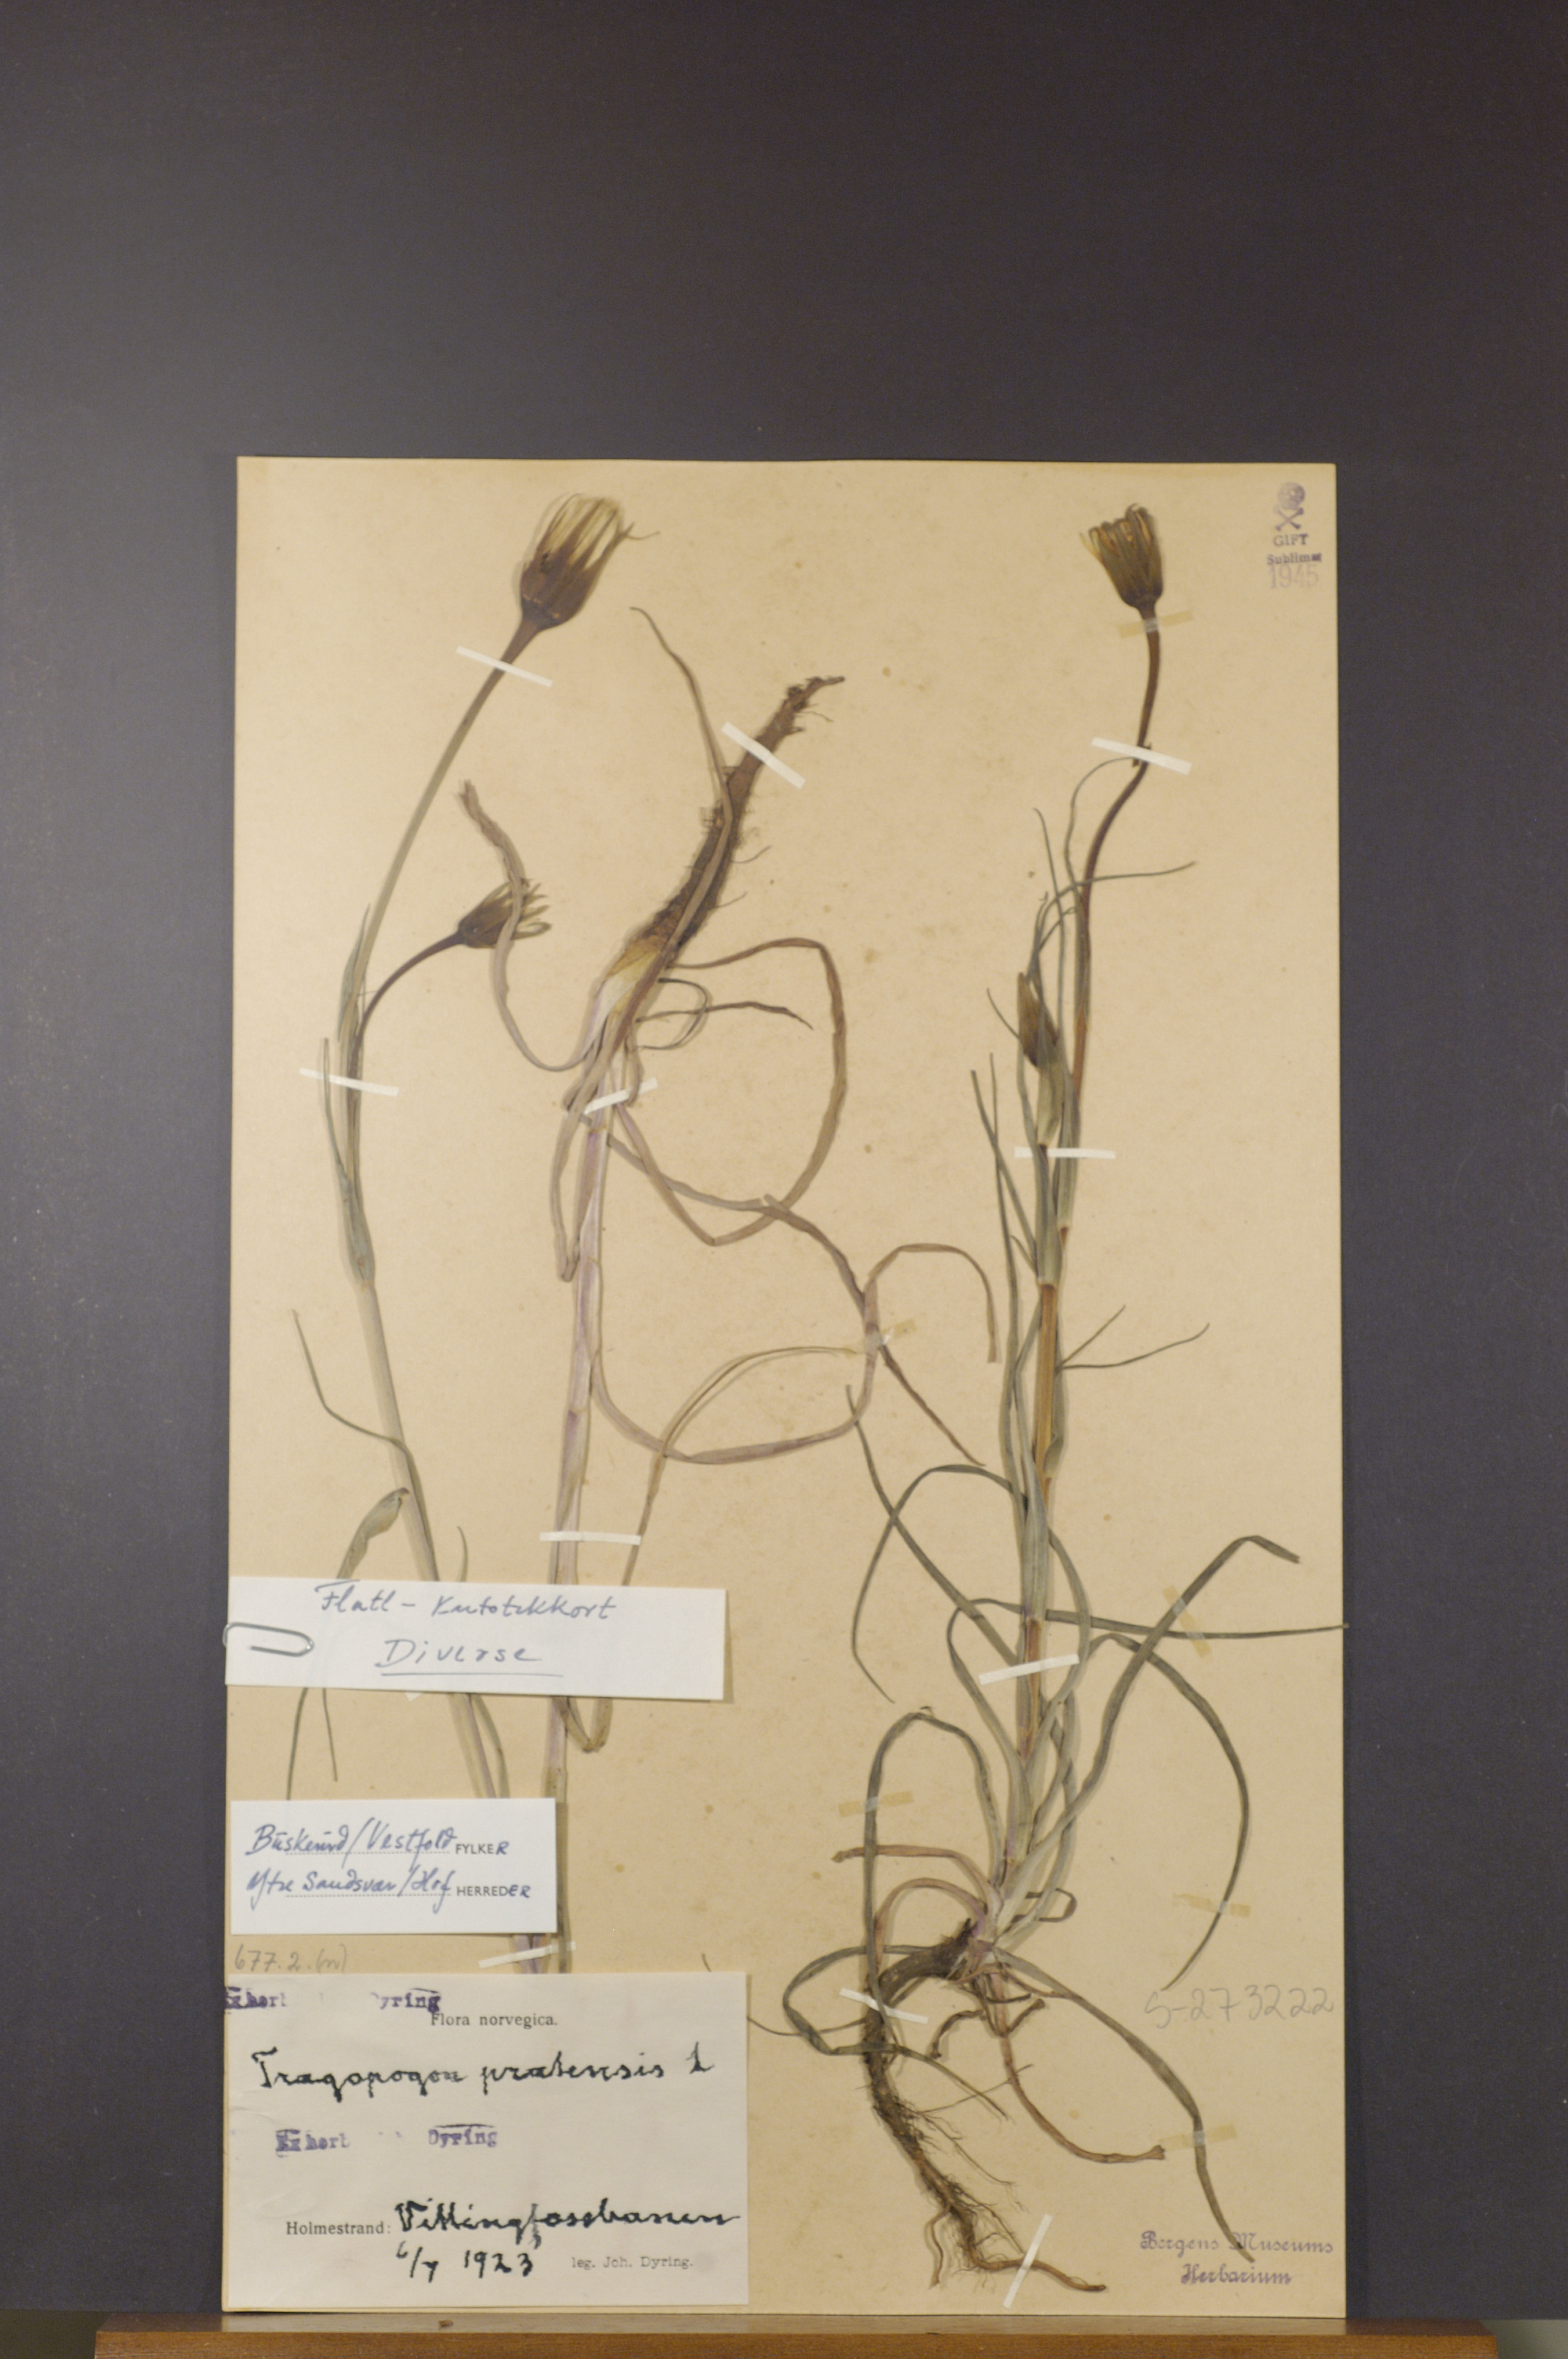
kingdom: Plantae
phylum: Tracheophyta
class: Magnoliopsida
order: Asterales
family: Asteraceae
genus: Tragopogon
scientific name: Tragopogon pratensis
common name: Goat's-beard
